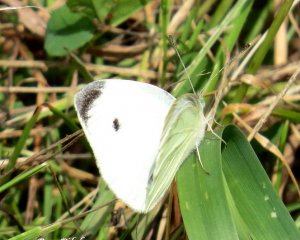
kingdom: Animalia
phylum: Arthropoda
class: Insecta
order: Lepidoptera
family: Pieridae
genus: Pieris
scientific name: Pieris rapae
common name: Cabbage White
